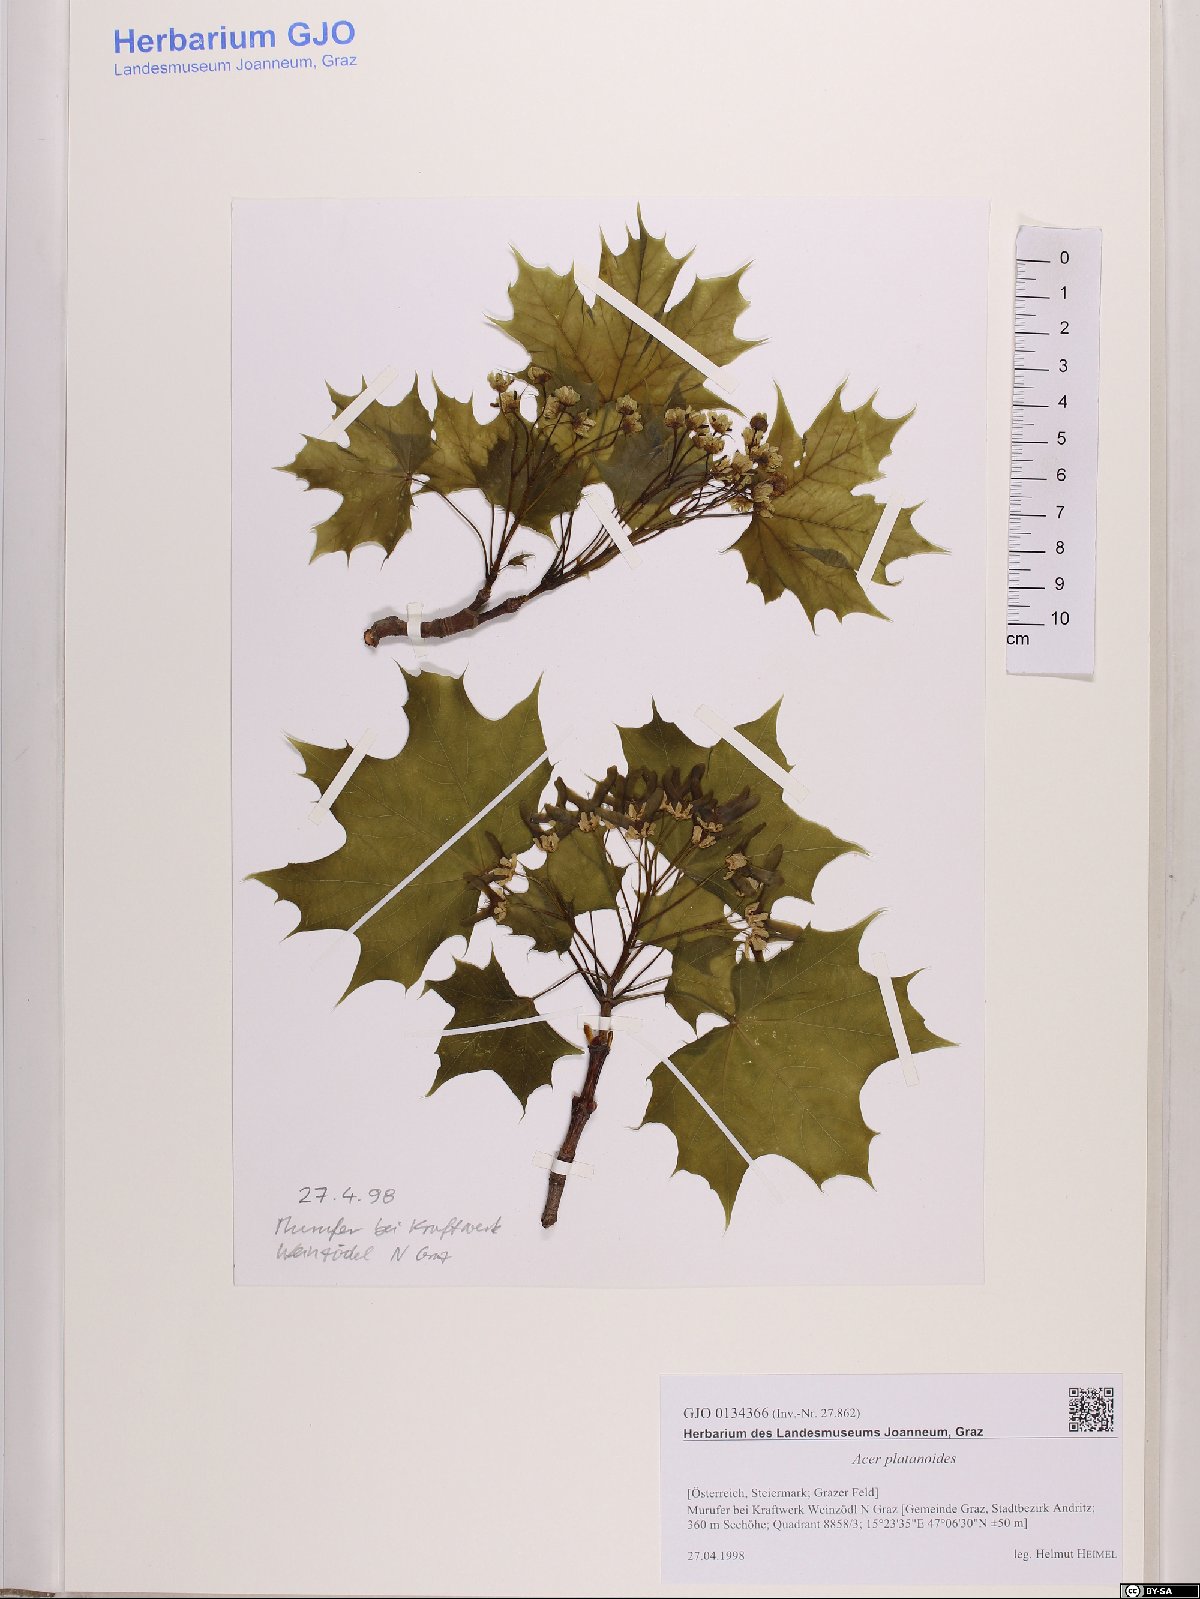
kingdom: Plantae
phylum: Tracheophyta
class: Magnoliopsida
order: Sapindales
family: Sapindaceae
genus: Acer
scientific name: Acer platanoides
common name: Norway maple
